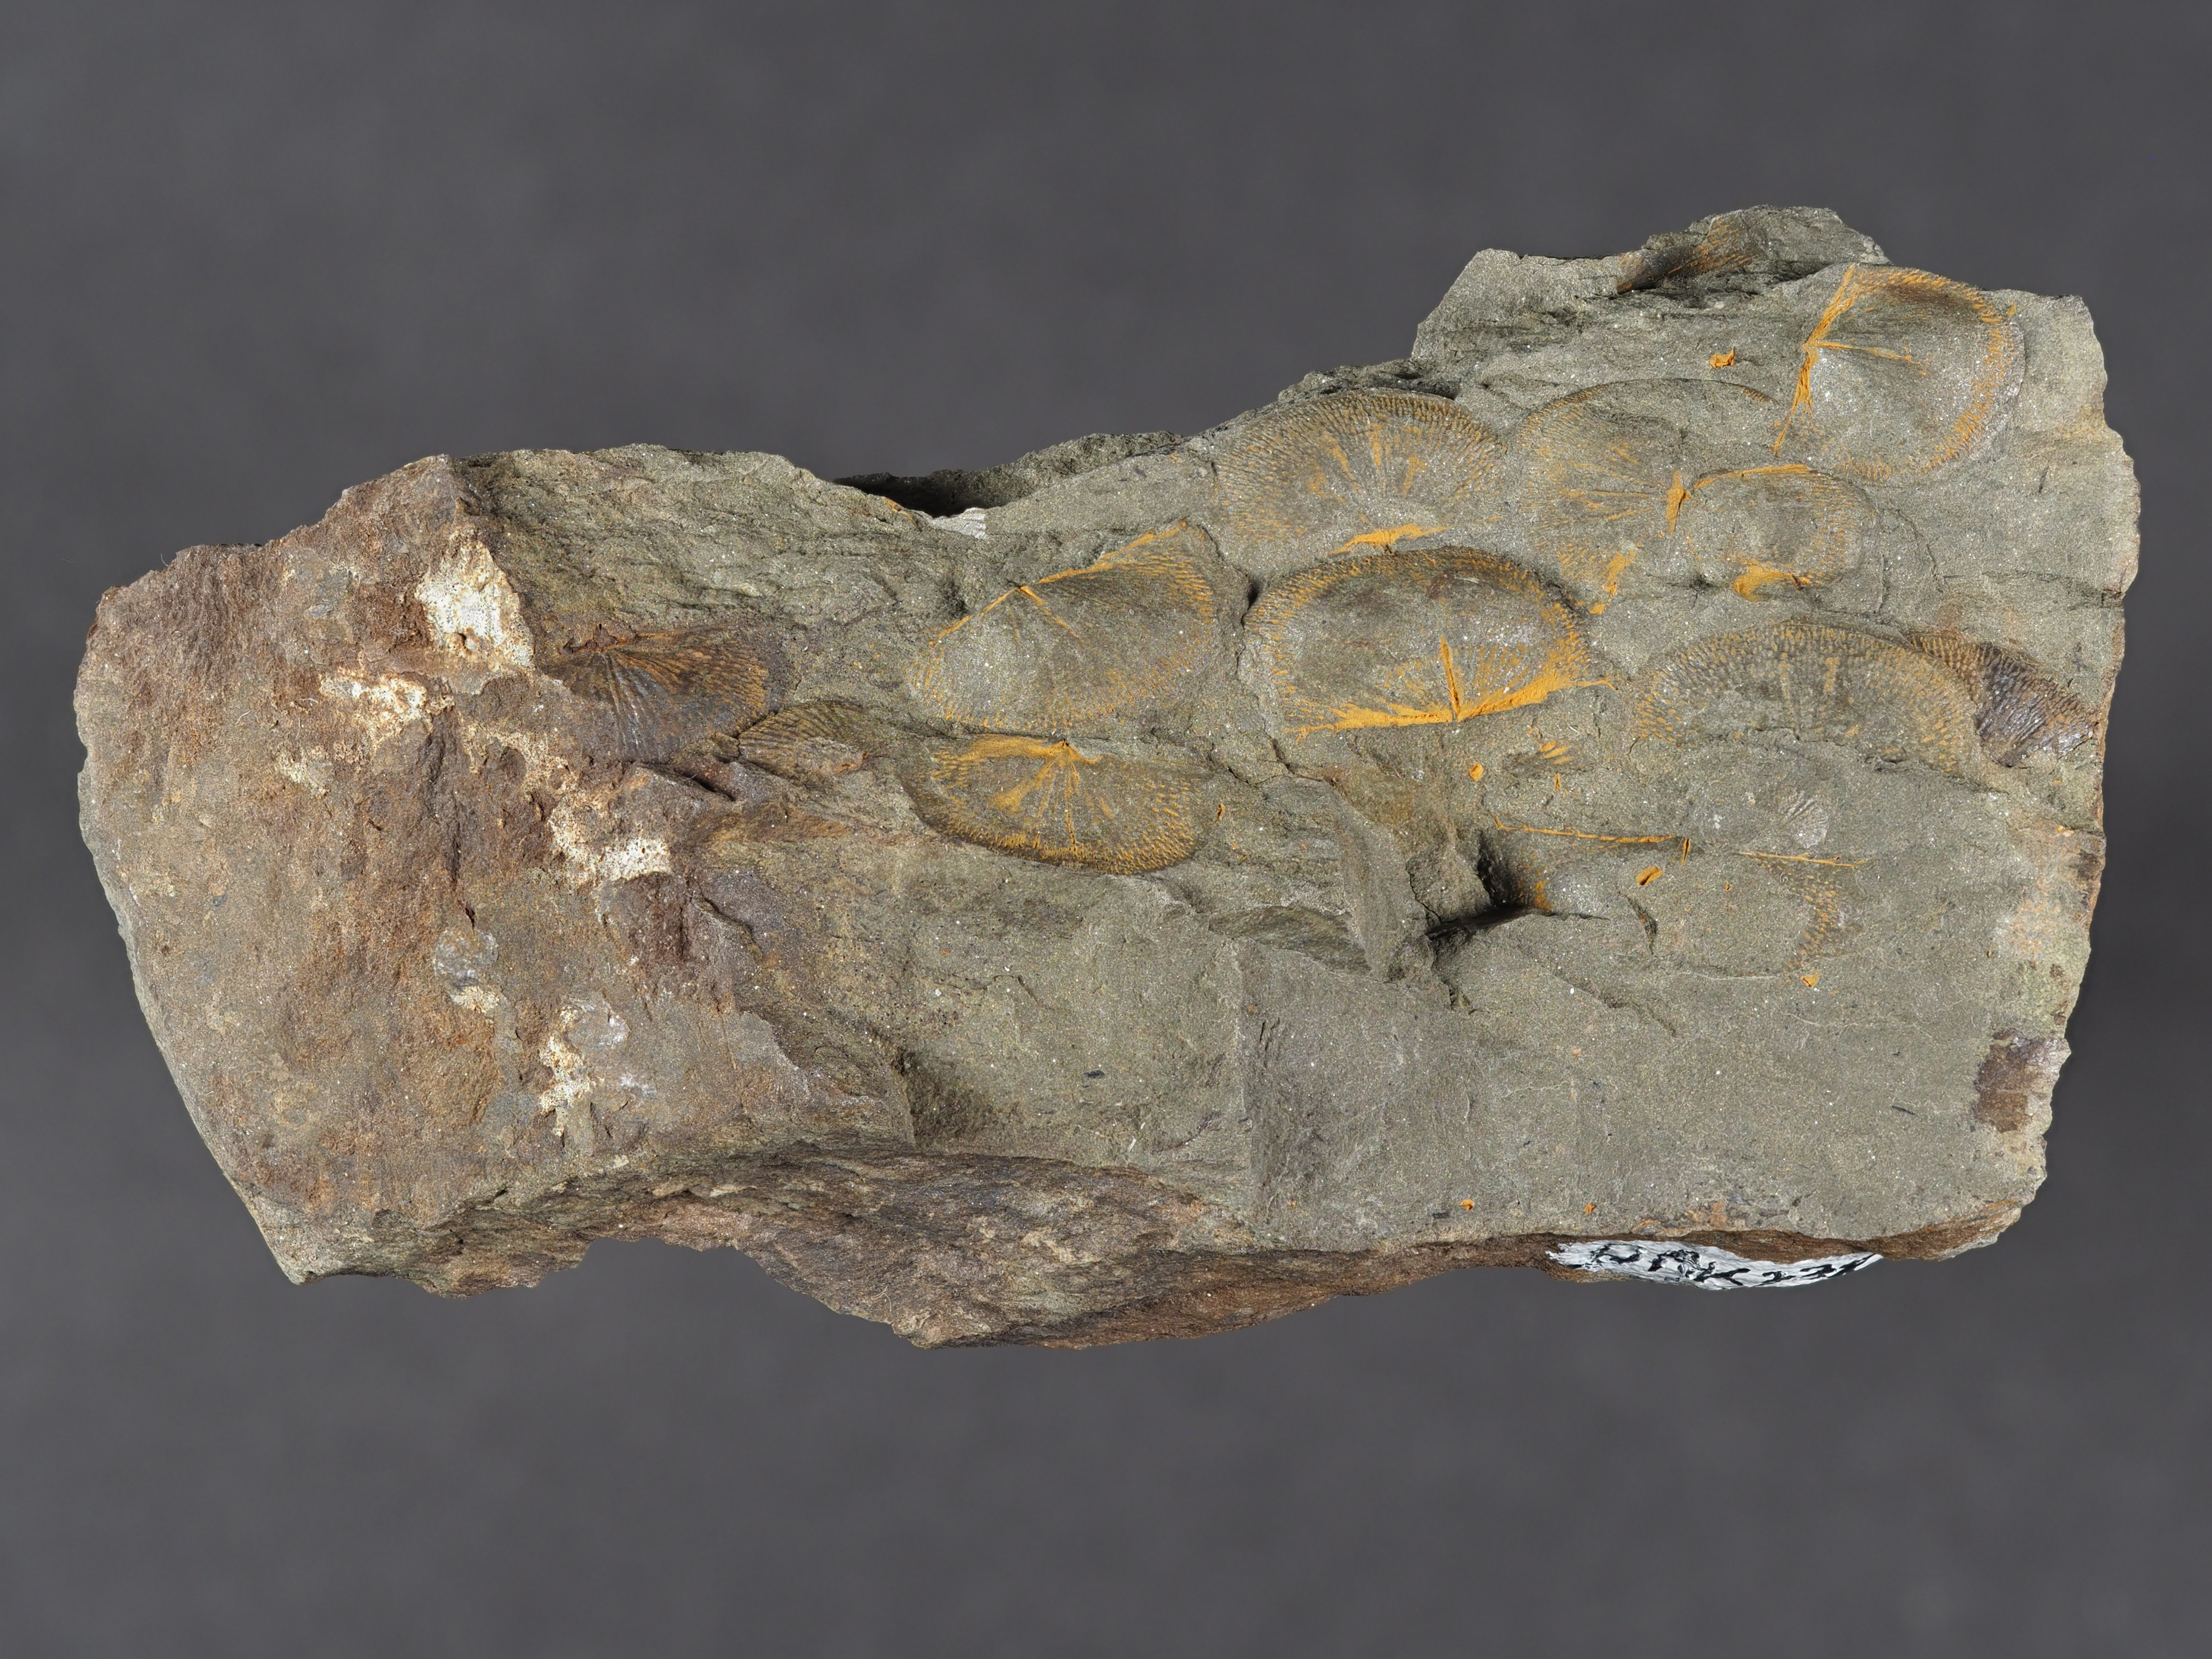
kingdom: Animalia
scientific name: Animalia
